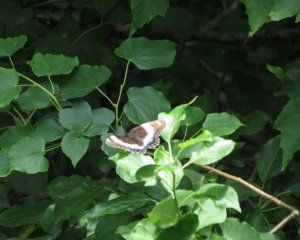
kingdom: Animalia
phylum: Arthropoda
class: Insecta
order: Lepidoptera
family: Nymphalidae
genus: Limenitis
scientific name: Limenitis arthemis
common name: Red-spotted Admiral
